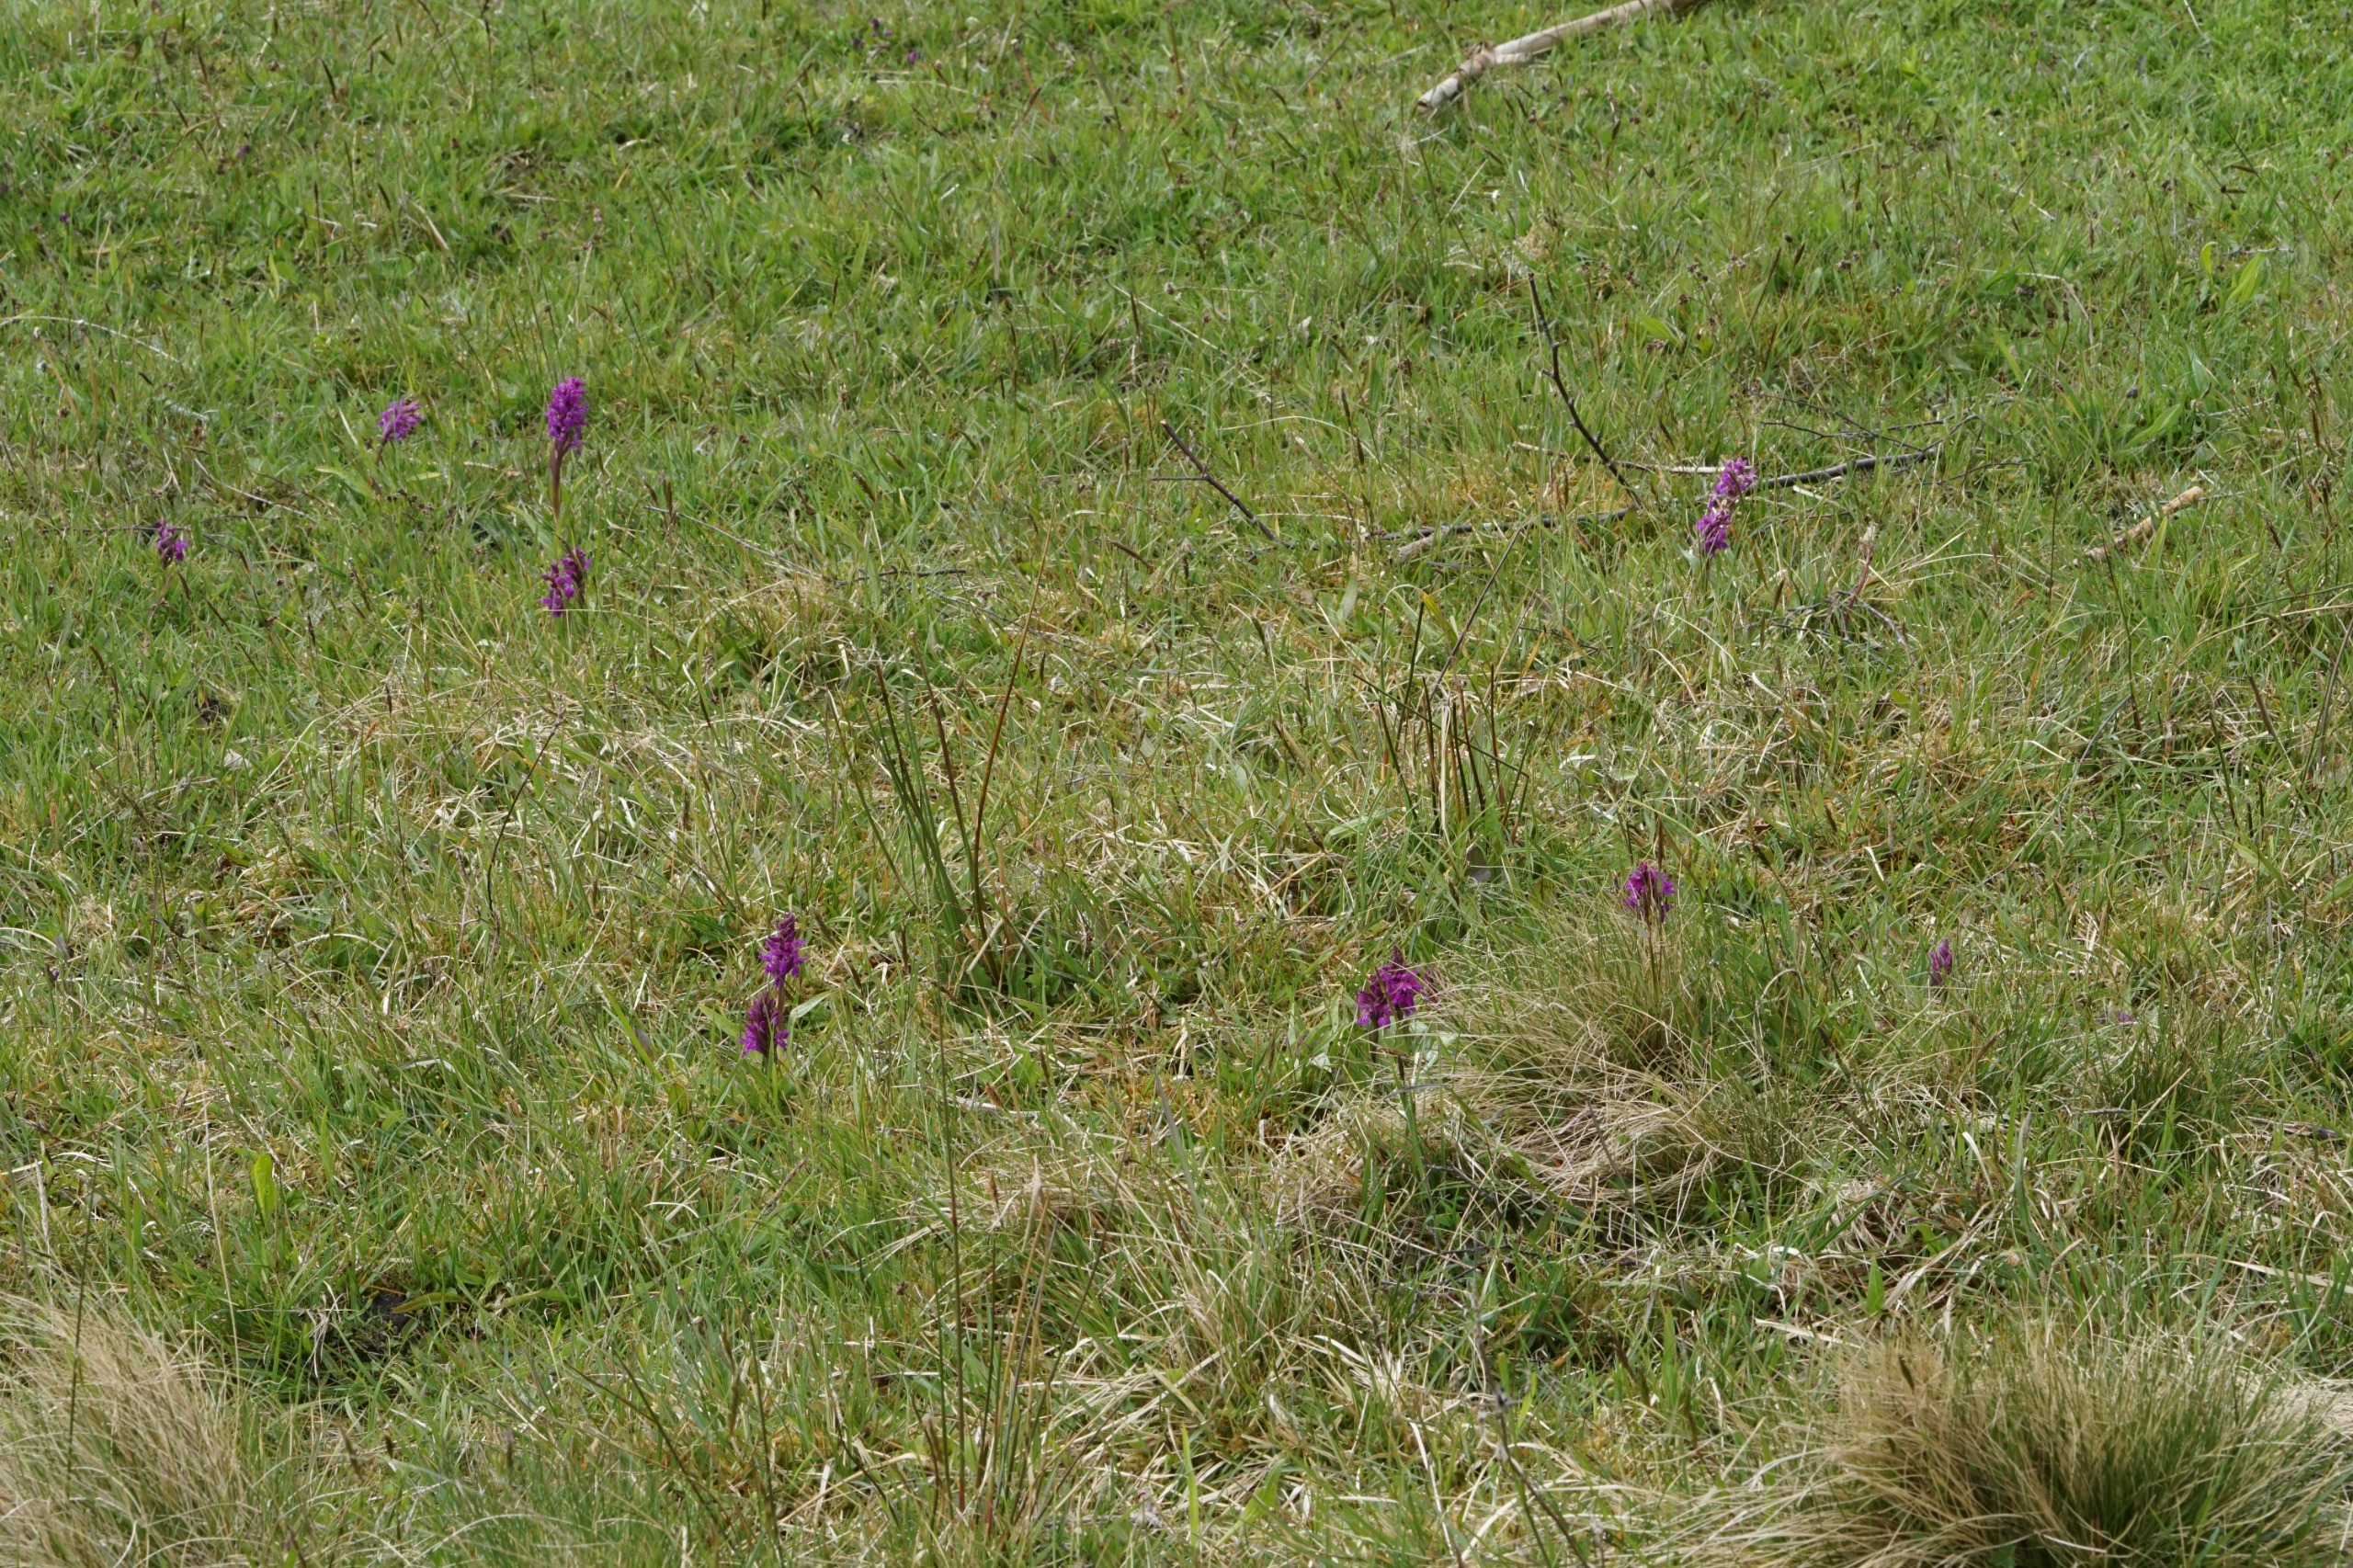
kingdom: Plantae
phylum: Tracheophyta
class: Liliopsida
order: Asparagales
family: Orchidaceae
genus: Dactylorhiza
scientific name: Dactylorhiza majalis
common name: Maj-gøgeurt
